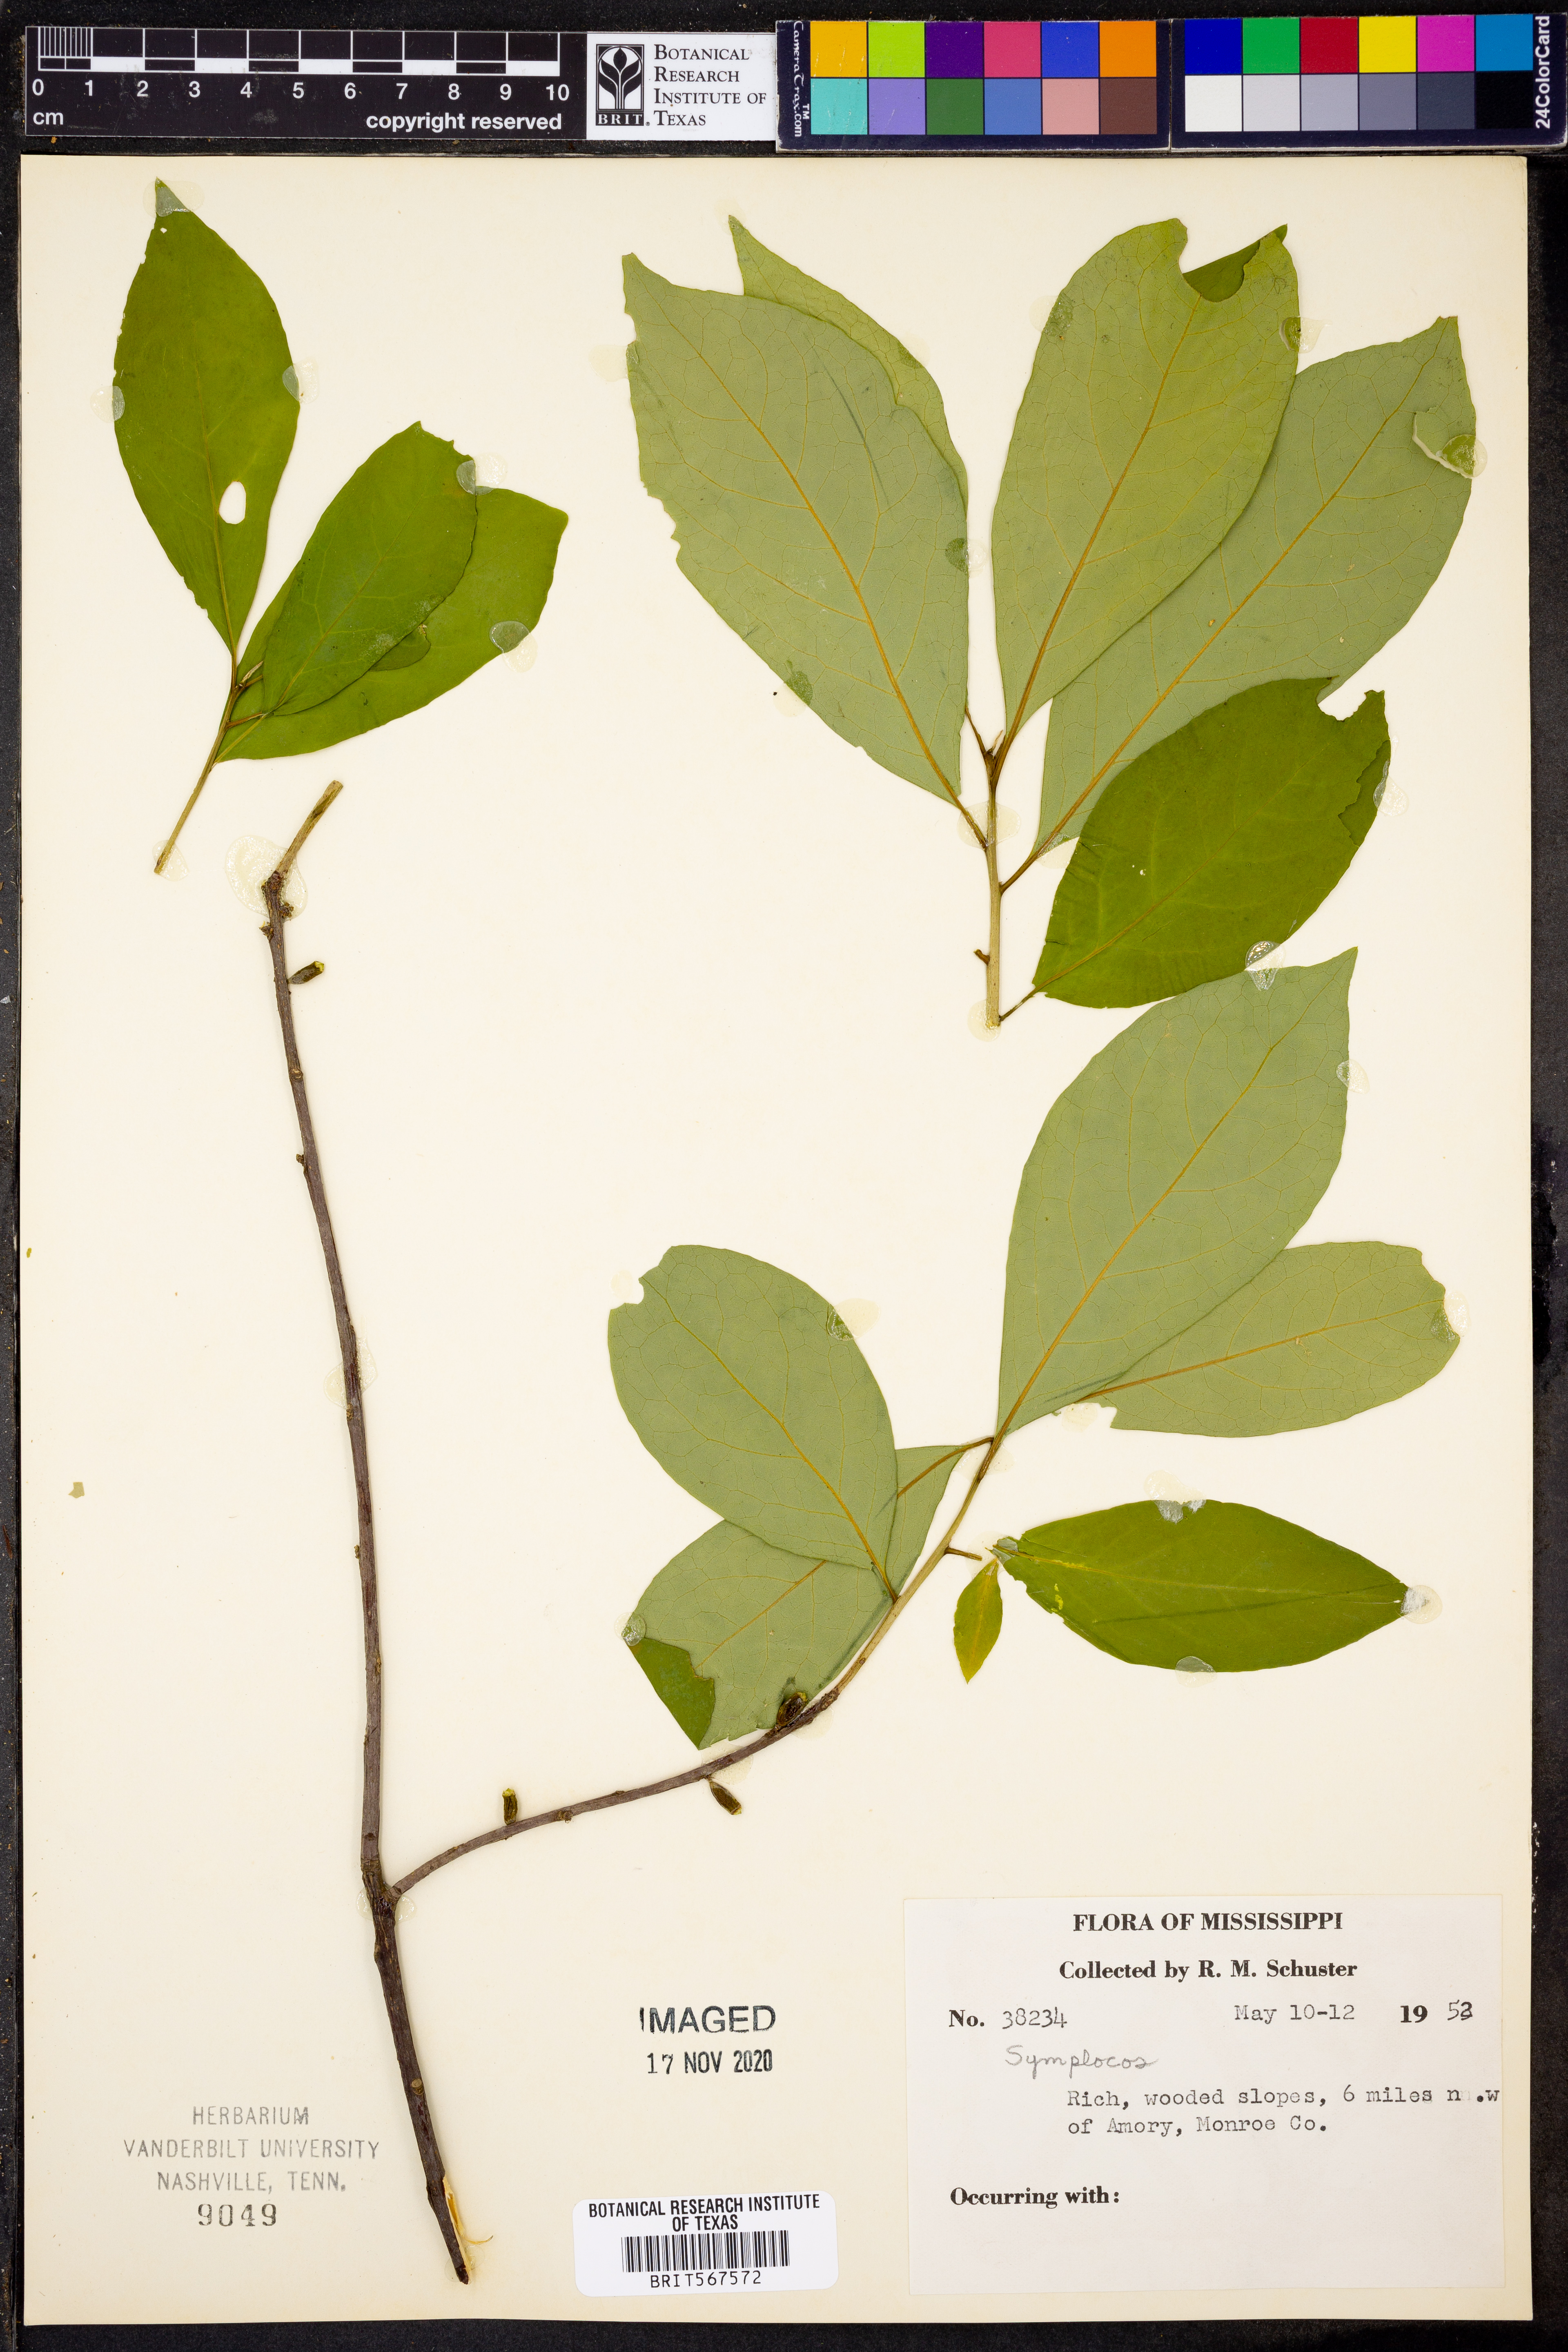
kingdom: Plantae
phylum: Tracheophyta
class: Magnoliopsida
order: Ericales
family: Symplocaceae
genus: Symplocos
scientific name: Symplocos
